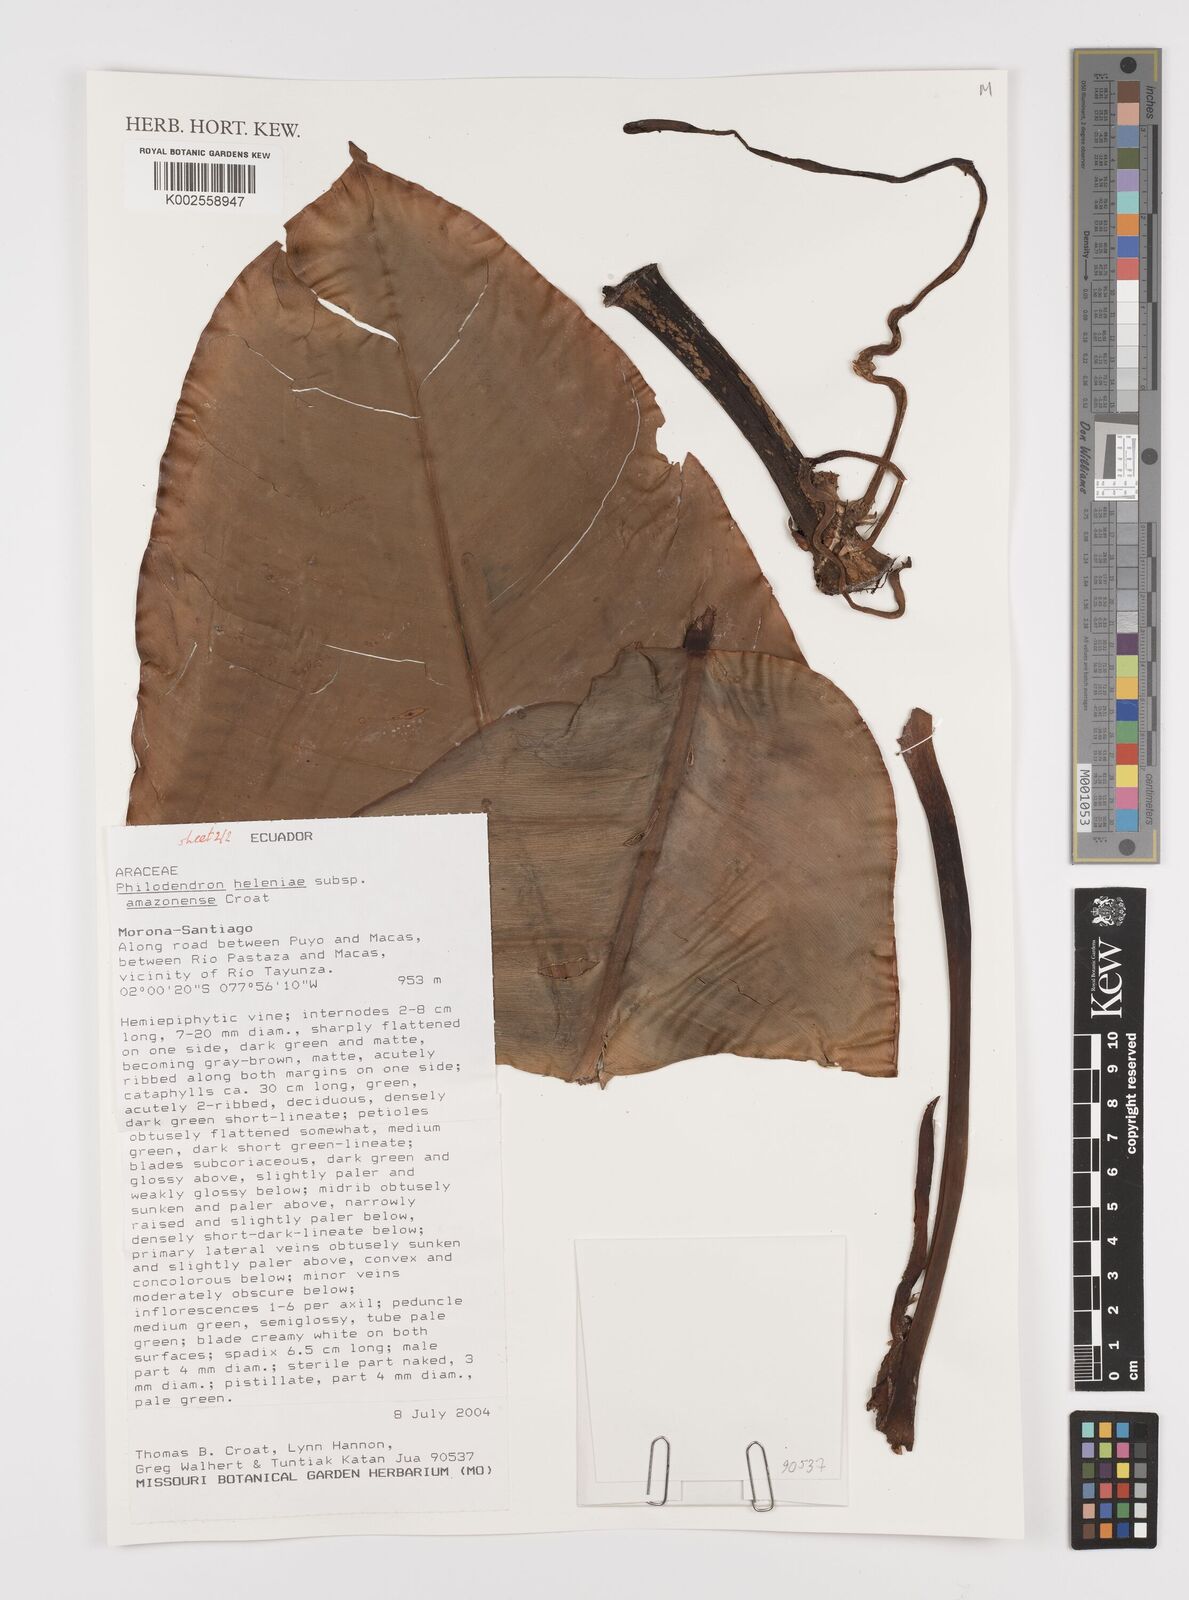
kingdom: Plantae
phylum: Tracheophyta
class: Liliopsida
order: Alismatales
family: Araceae
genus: Philodendron
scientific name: Philodendron heleniae
